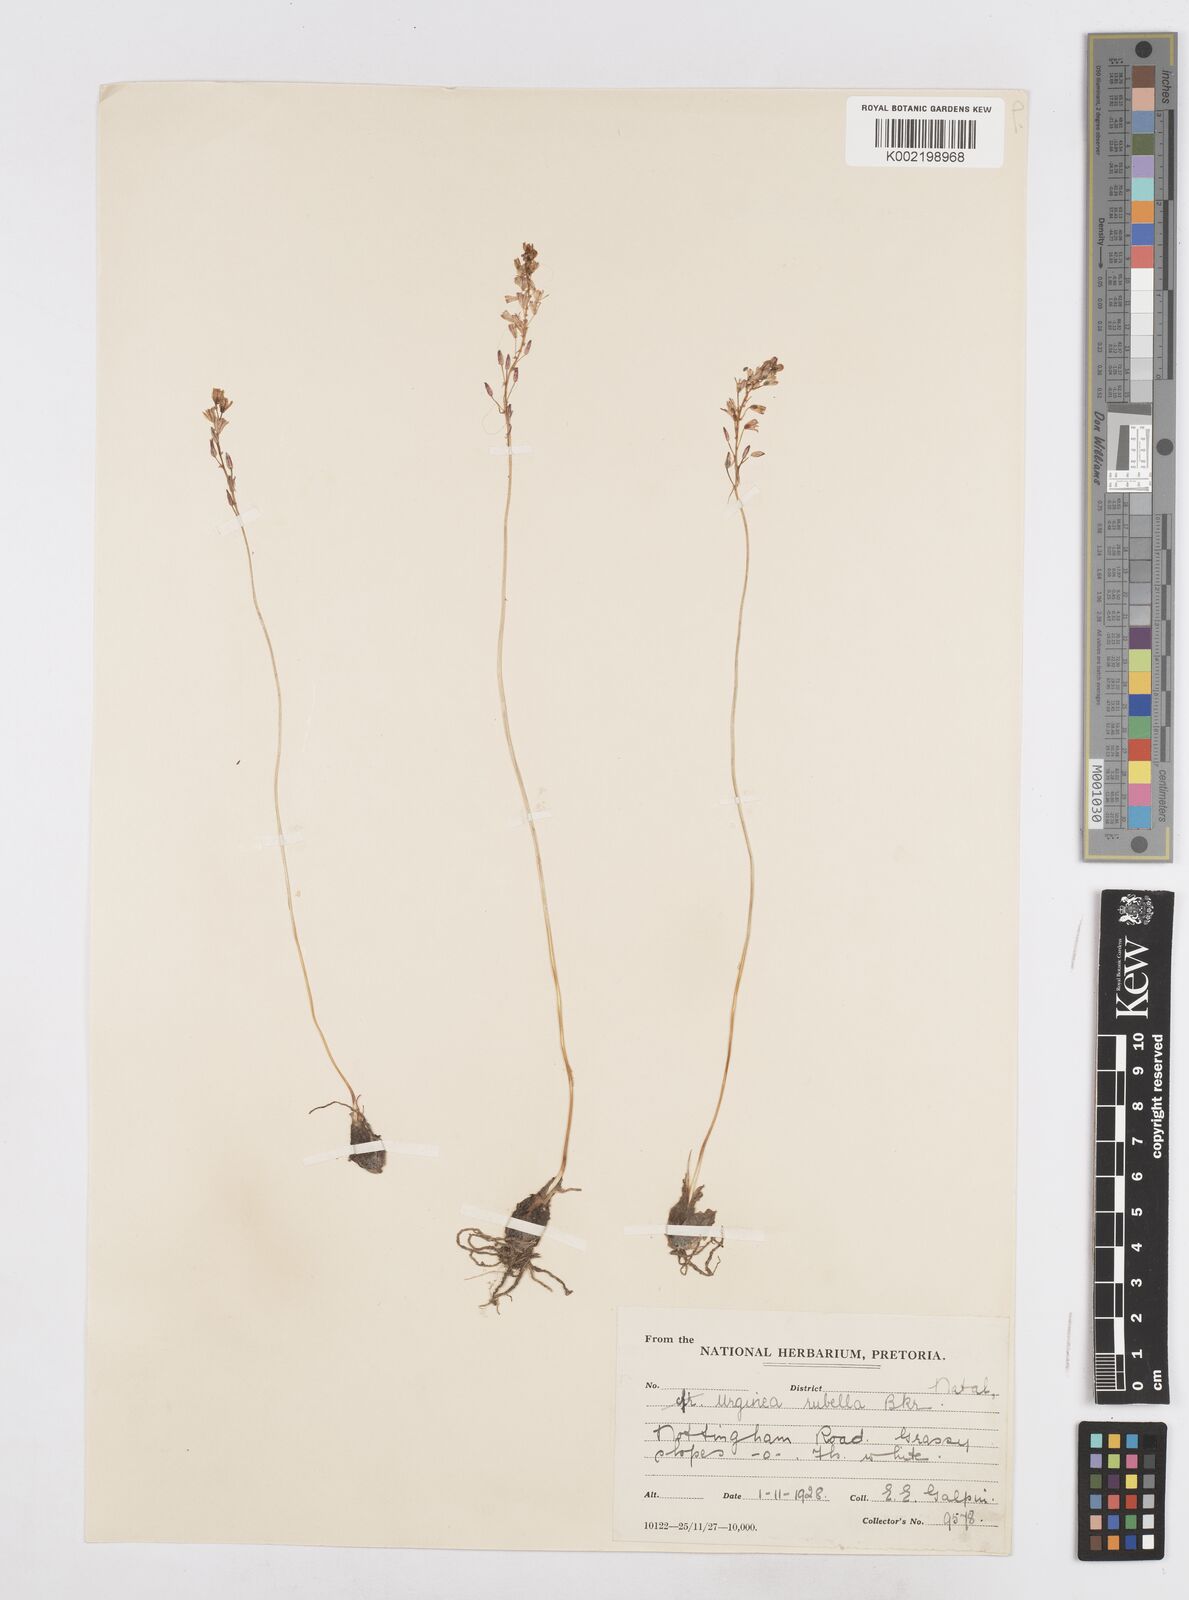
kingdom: Plantae
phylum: Tracheophyta
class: Liliopsida
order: Asparagales
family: Asparagaceae
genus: Drimia
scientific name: Drimia
